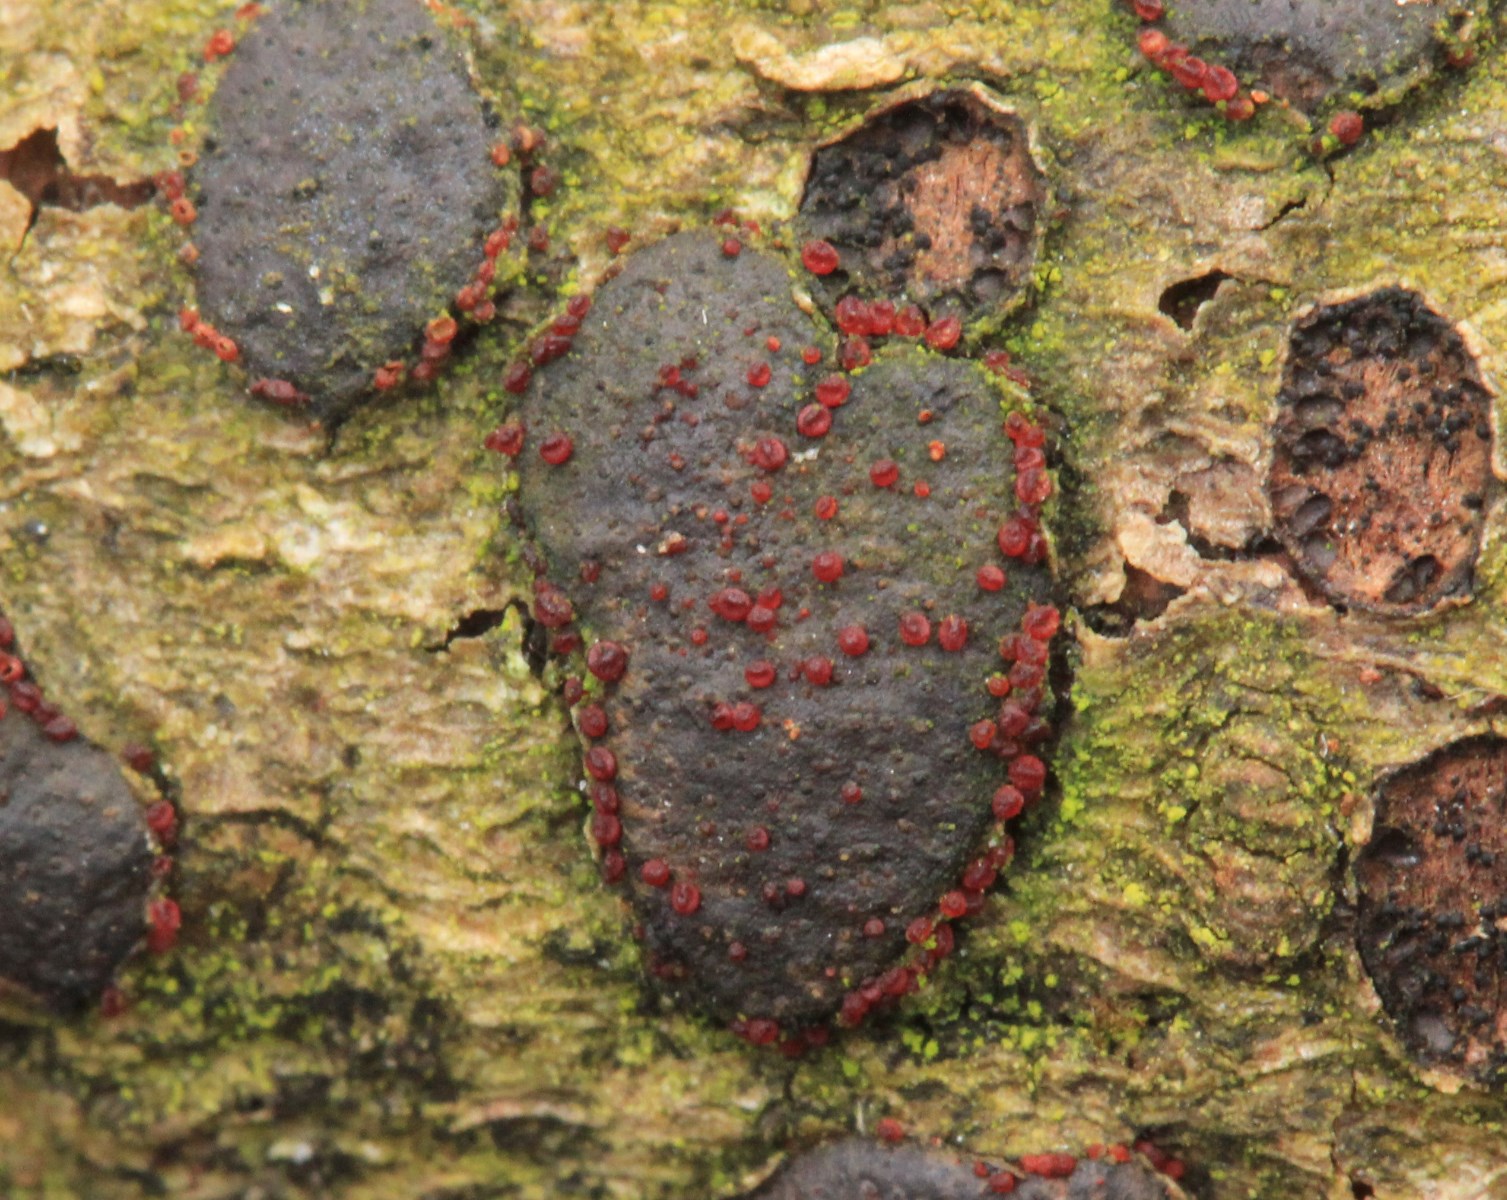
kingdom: Fungi
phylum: Ascomycota
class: Sordariomycetes
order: Hypocreales
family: Nectriaceae
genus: Dialonectria
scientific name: Dialonectria diatrypicola
